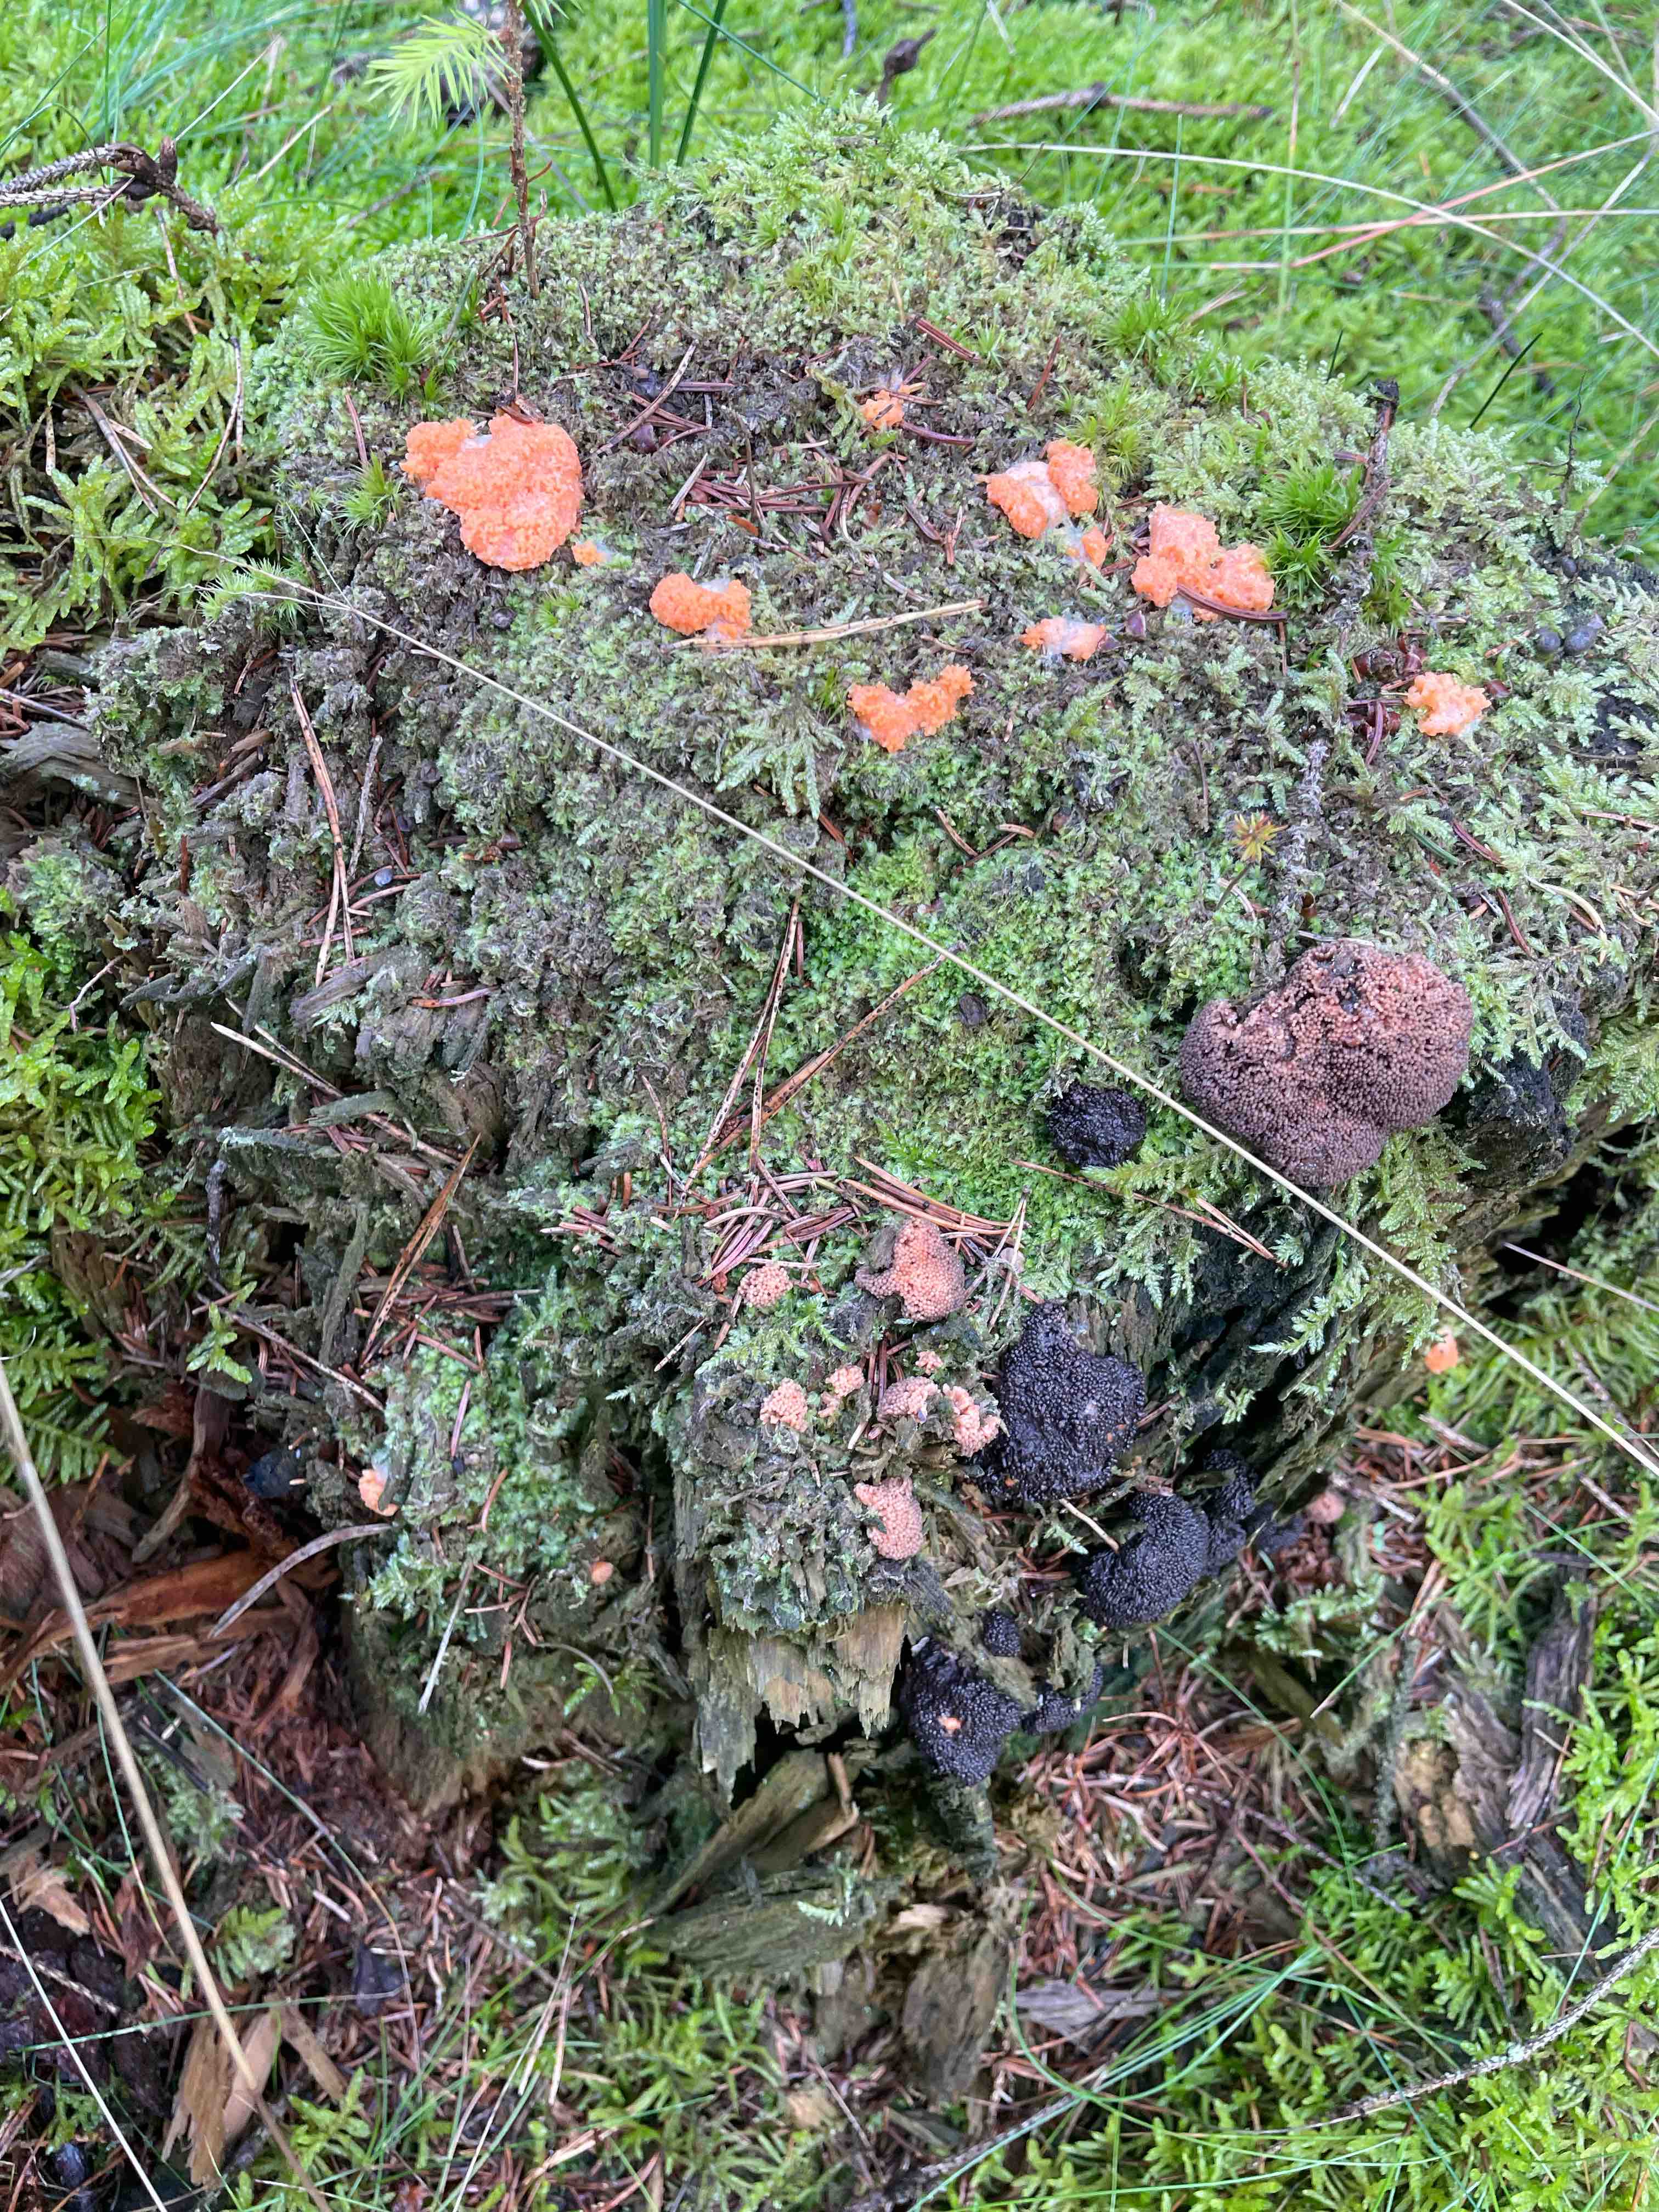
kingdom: Protozoa
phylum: Mycetozoa
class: Myxomycetes
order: Cribrariales
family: Tubiferaceae
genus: Tubifera
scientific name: Tubifera ferruginosa
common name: kanel-støvrør
